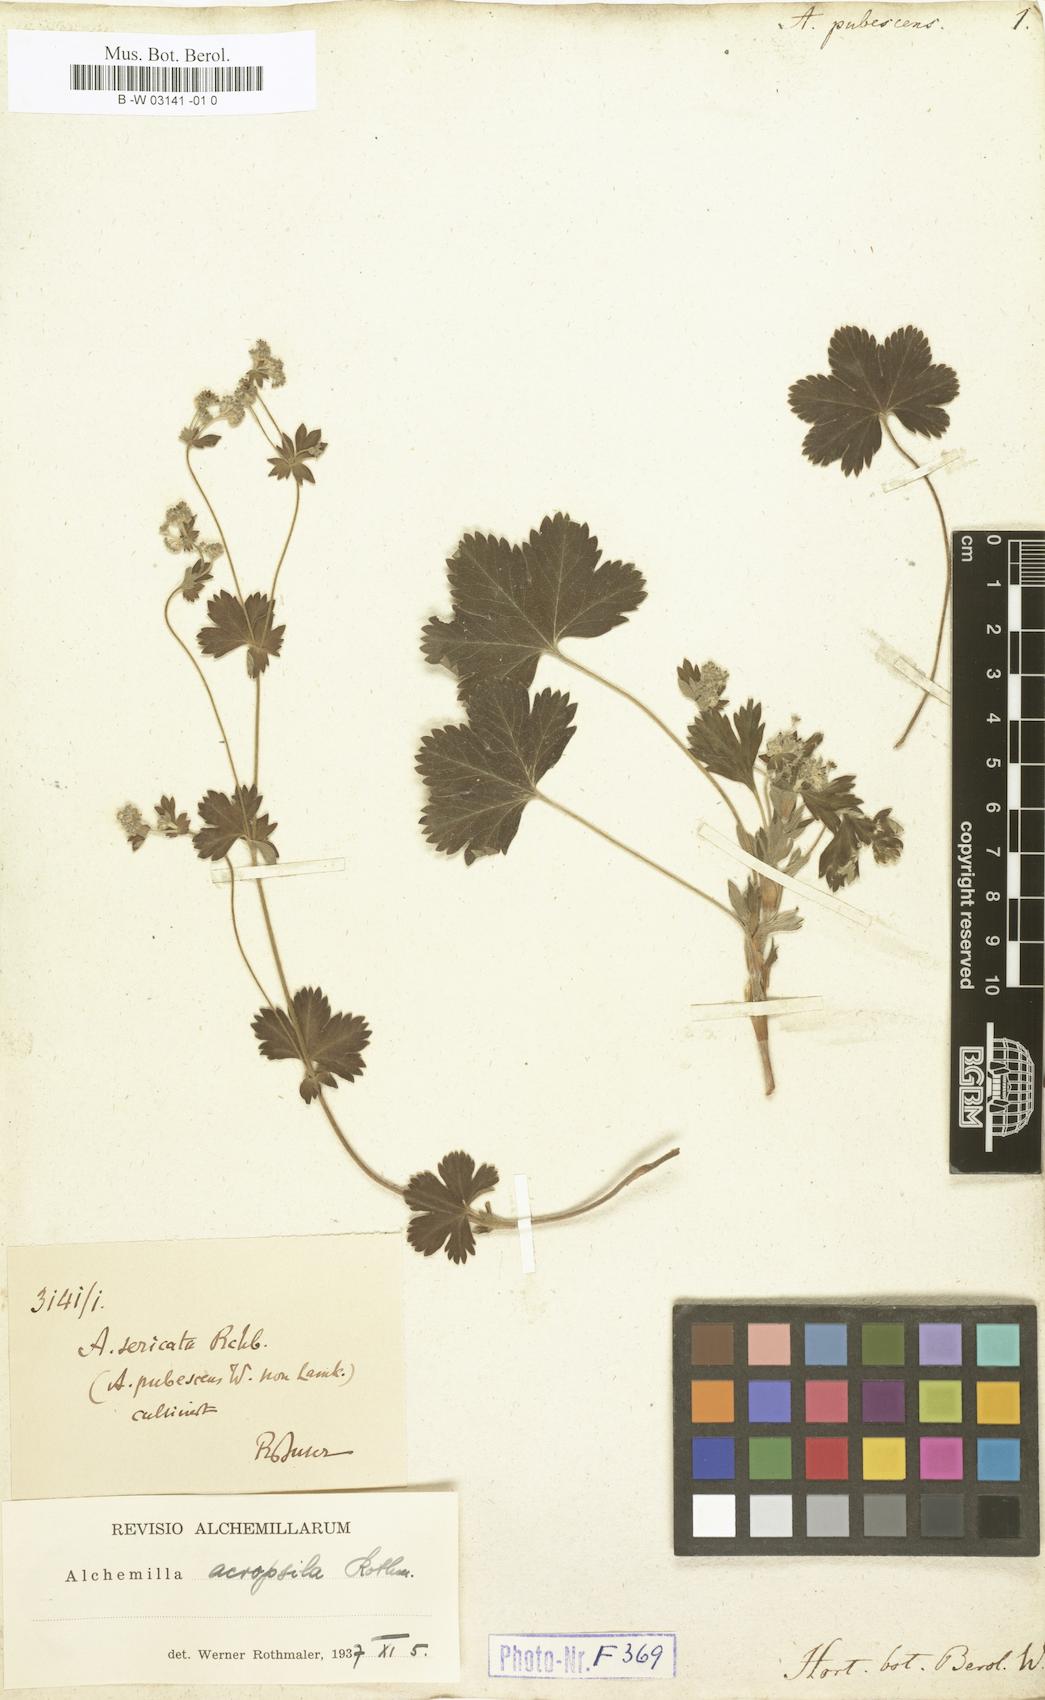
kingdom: Plantae
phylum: Tracheophyta
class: Magnoliopsida
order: Rosales
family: Rosaceae
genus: Alchemilla
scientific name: Alchemilla hybrida
